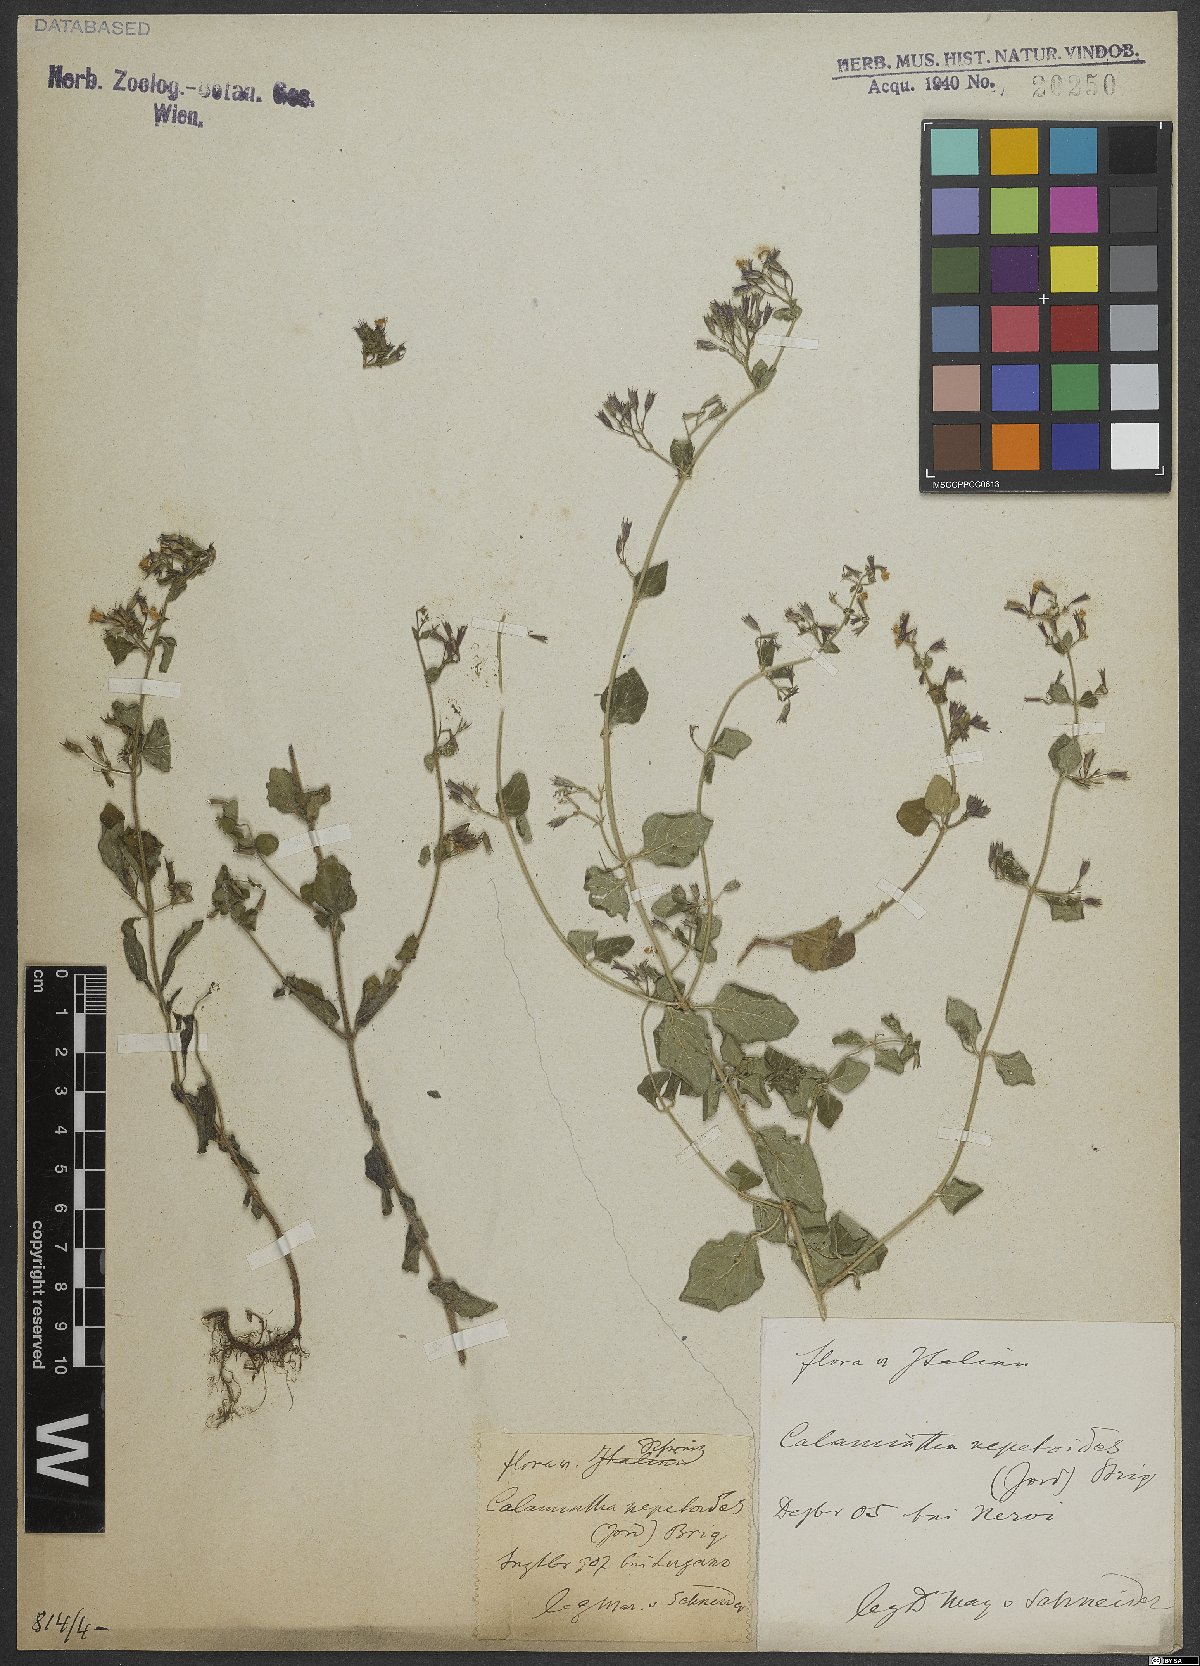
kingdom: Plantae
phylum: Tracheophyta
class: Magnoliopsida
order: Lamiales
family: Lamiaceae
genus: Clinopodium
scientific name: Clinopodium nepeta
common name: Lesser calamint
